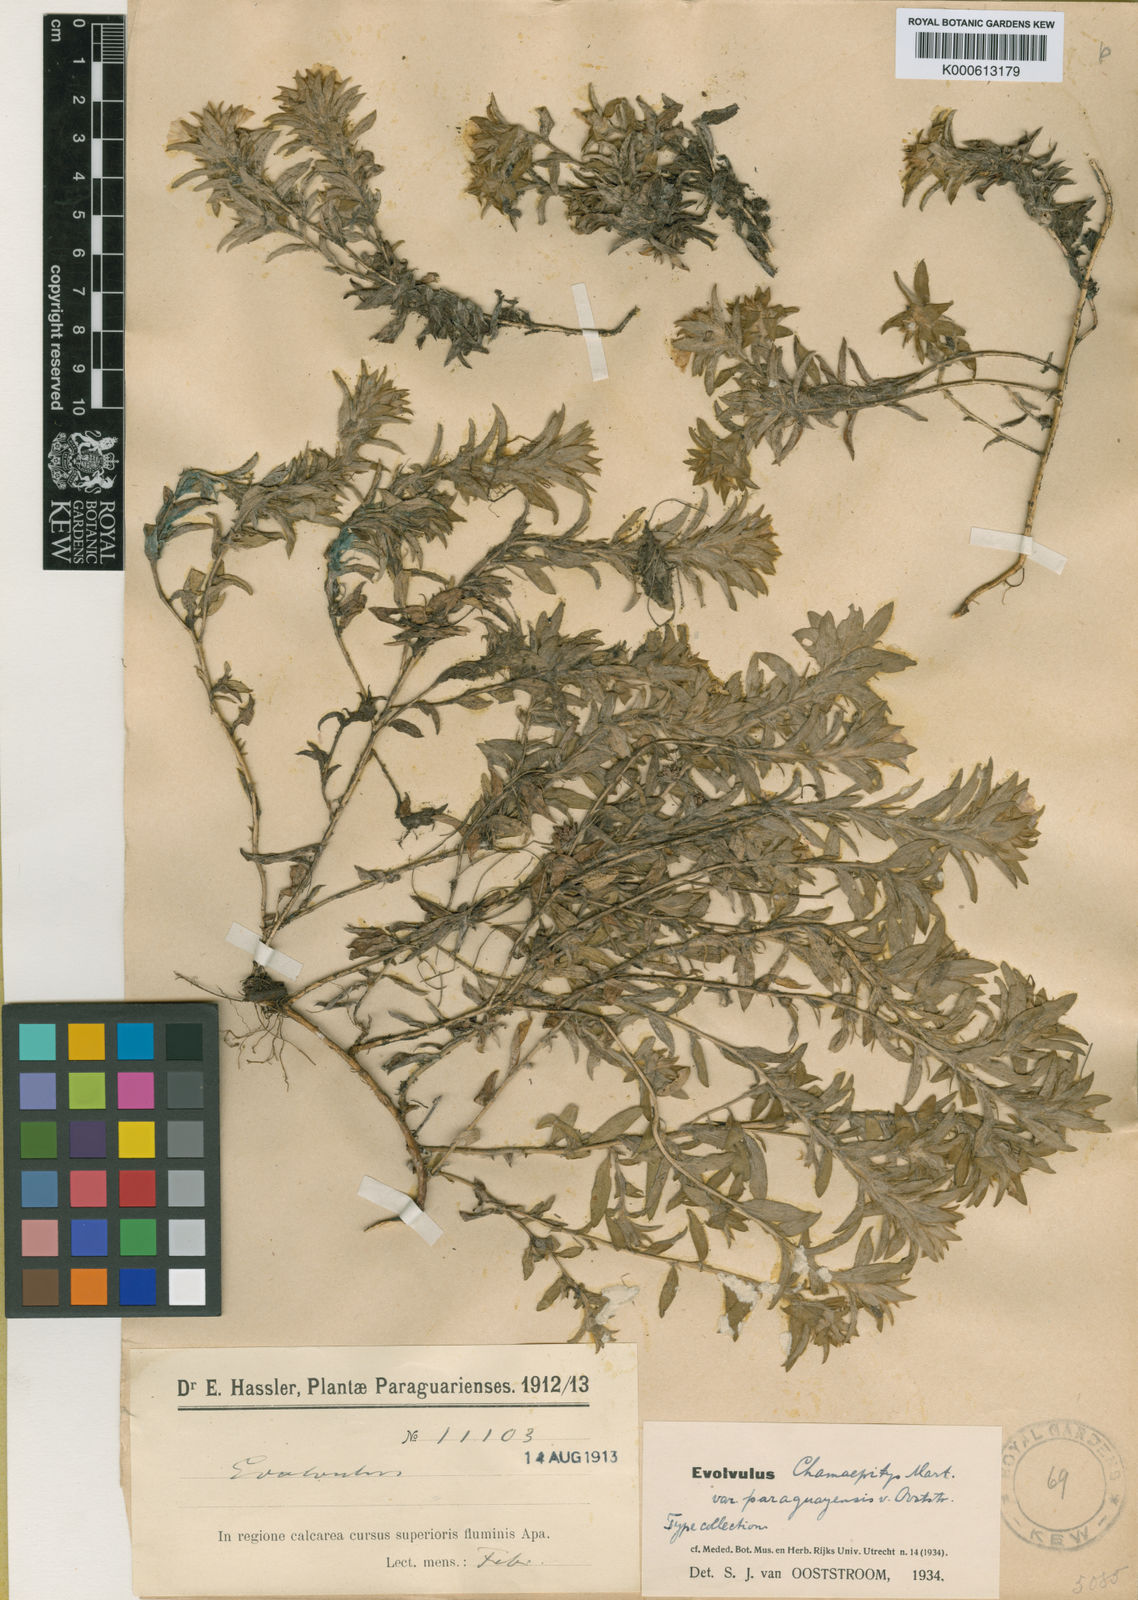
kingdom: Plantae
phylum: Tracheophyta
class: Magnoliopsida
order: Solanales
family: Convolvulaceae
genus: Evolvulus
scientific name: Evolvulus chamaepitys
